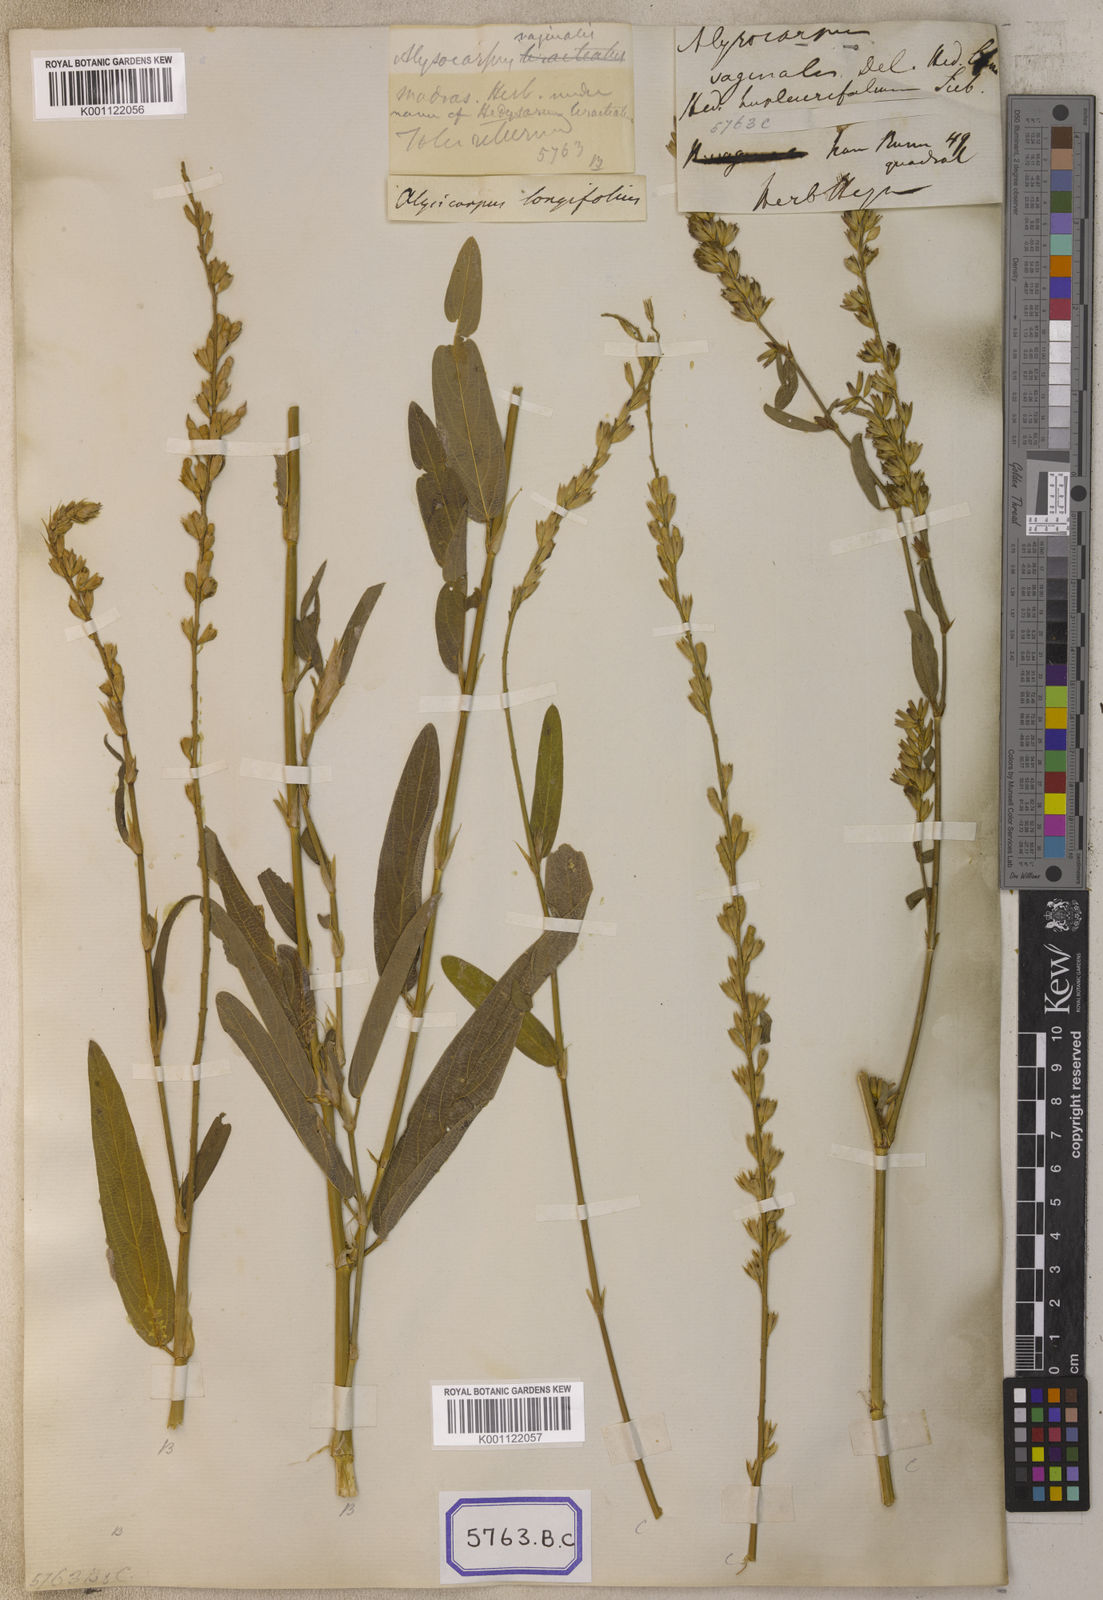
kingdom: Plantae
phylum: Tracheophyta
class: Magnoliopsida
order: Fabales
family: Fabaceae
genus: Alysicarpus
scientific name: Alysicarpus vaginalis
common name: White moneywort
